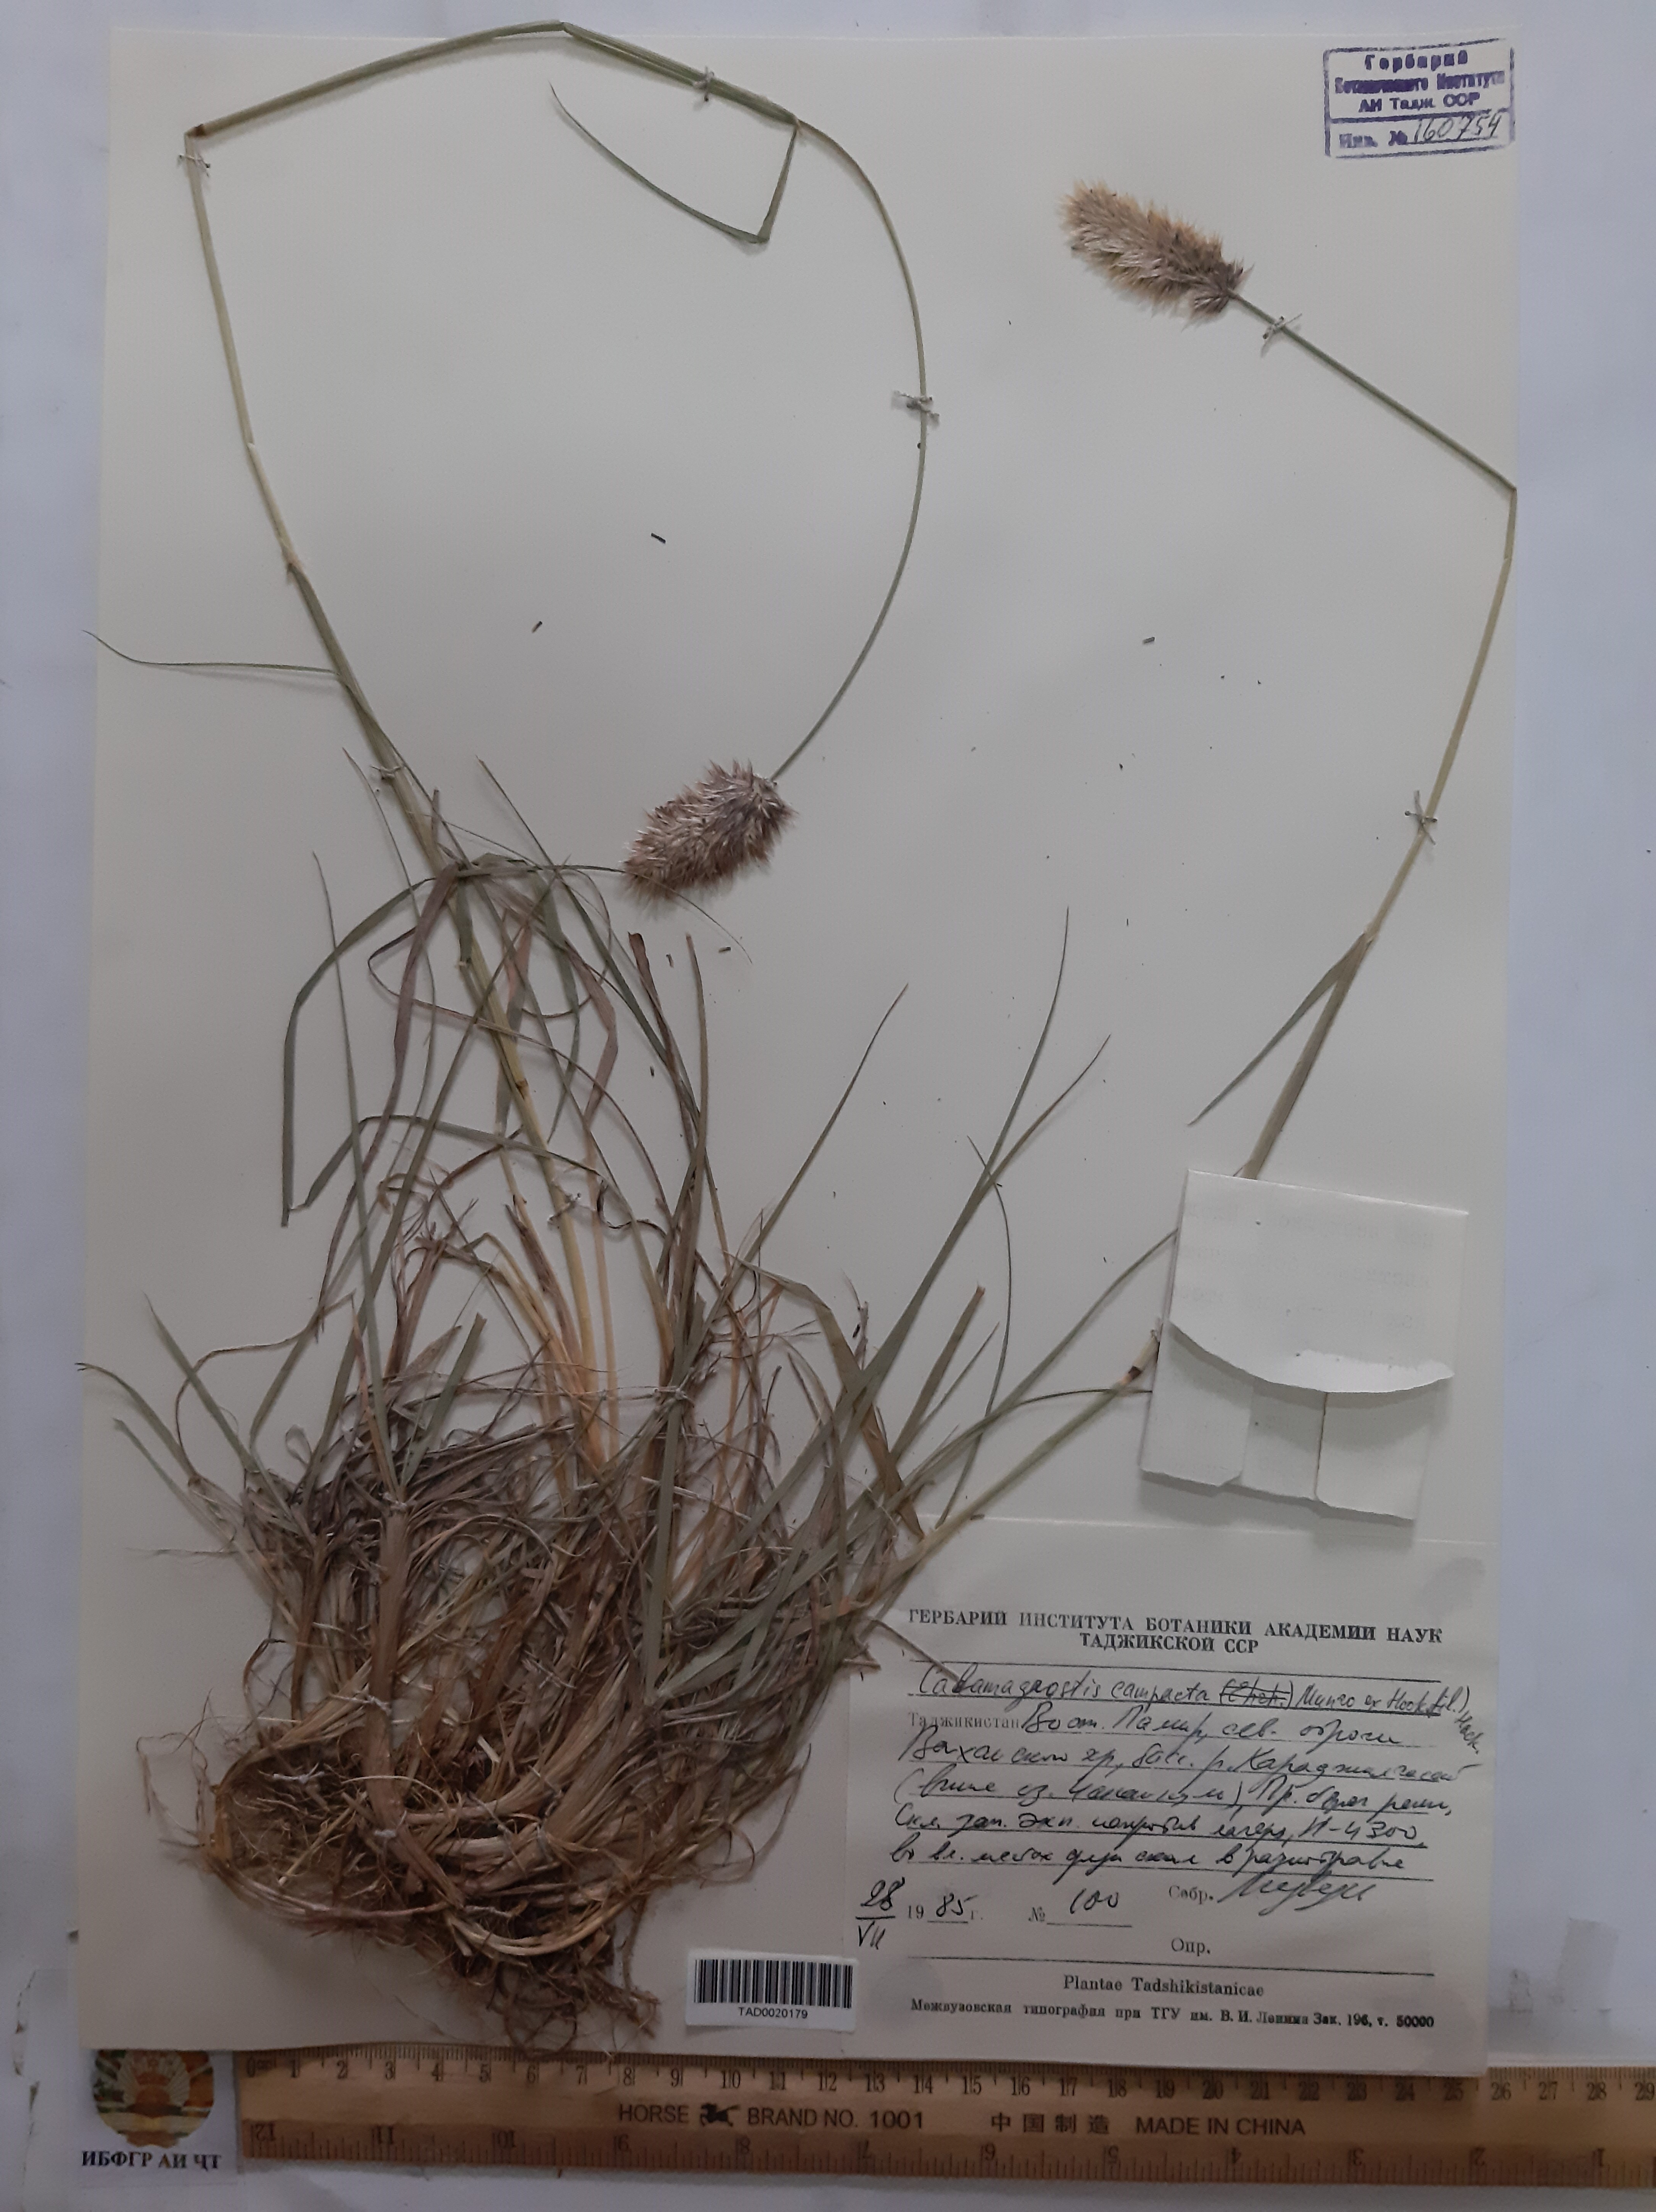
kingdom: Plantae
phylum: Tracheophyta
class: Liliopsida
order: Poales
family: Poaceae
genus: Calamagrostis
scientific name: Calamagrostis holciformis
